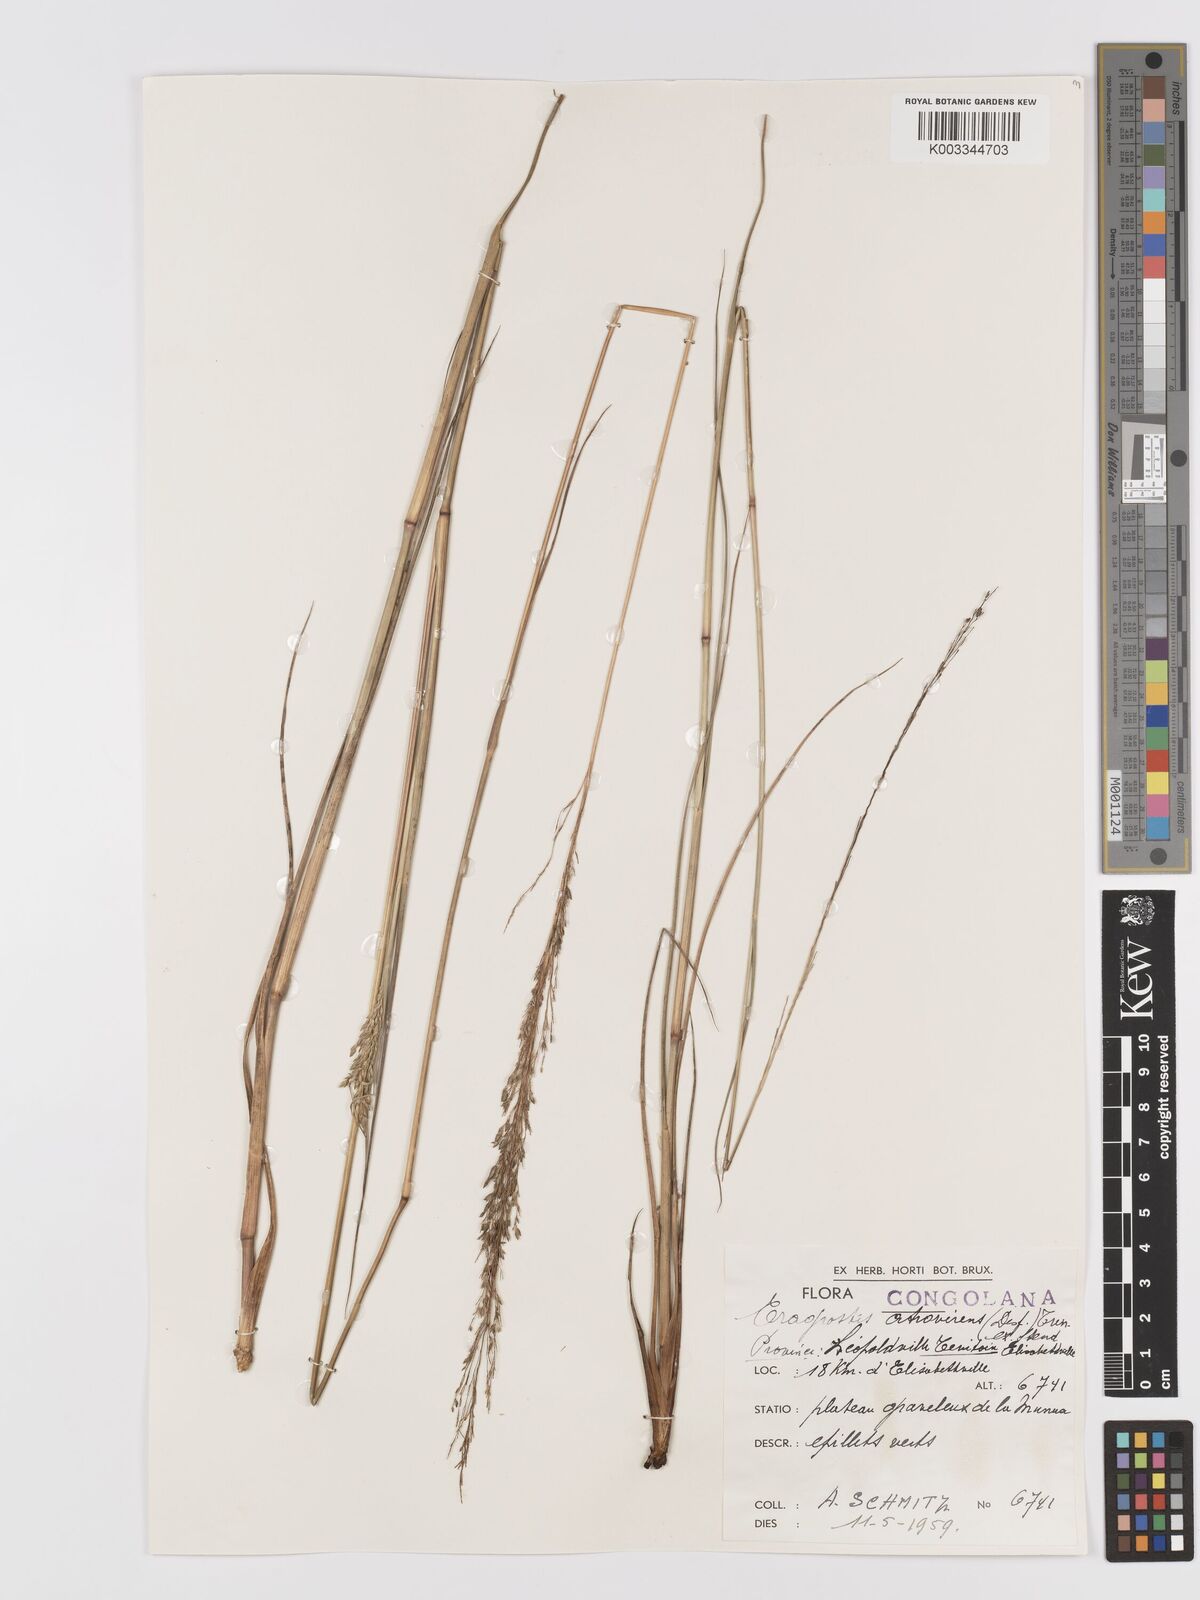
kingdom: Plantae
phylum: Tracheophyta
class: Liliopsida
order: Poales
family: Poaceae
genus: Eragrostis
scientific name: Eragrostis atrovirens
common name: Thalia lovegrass
